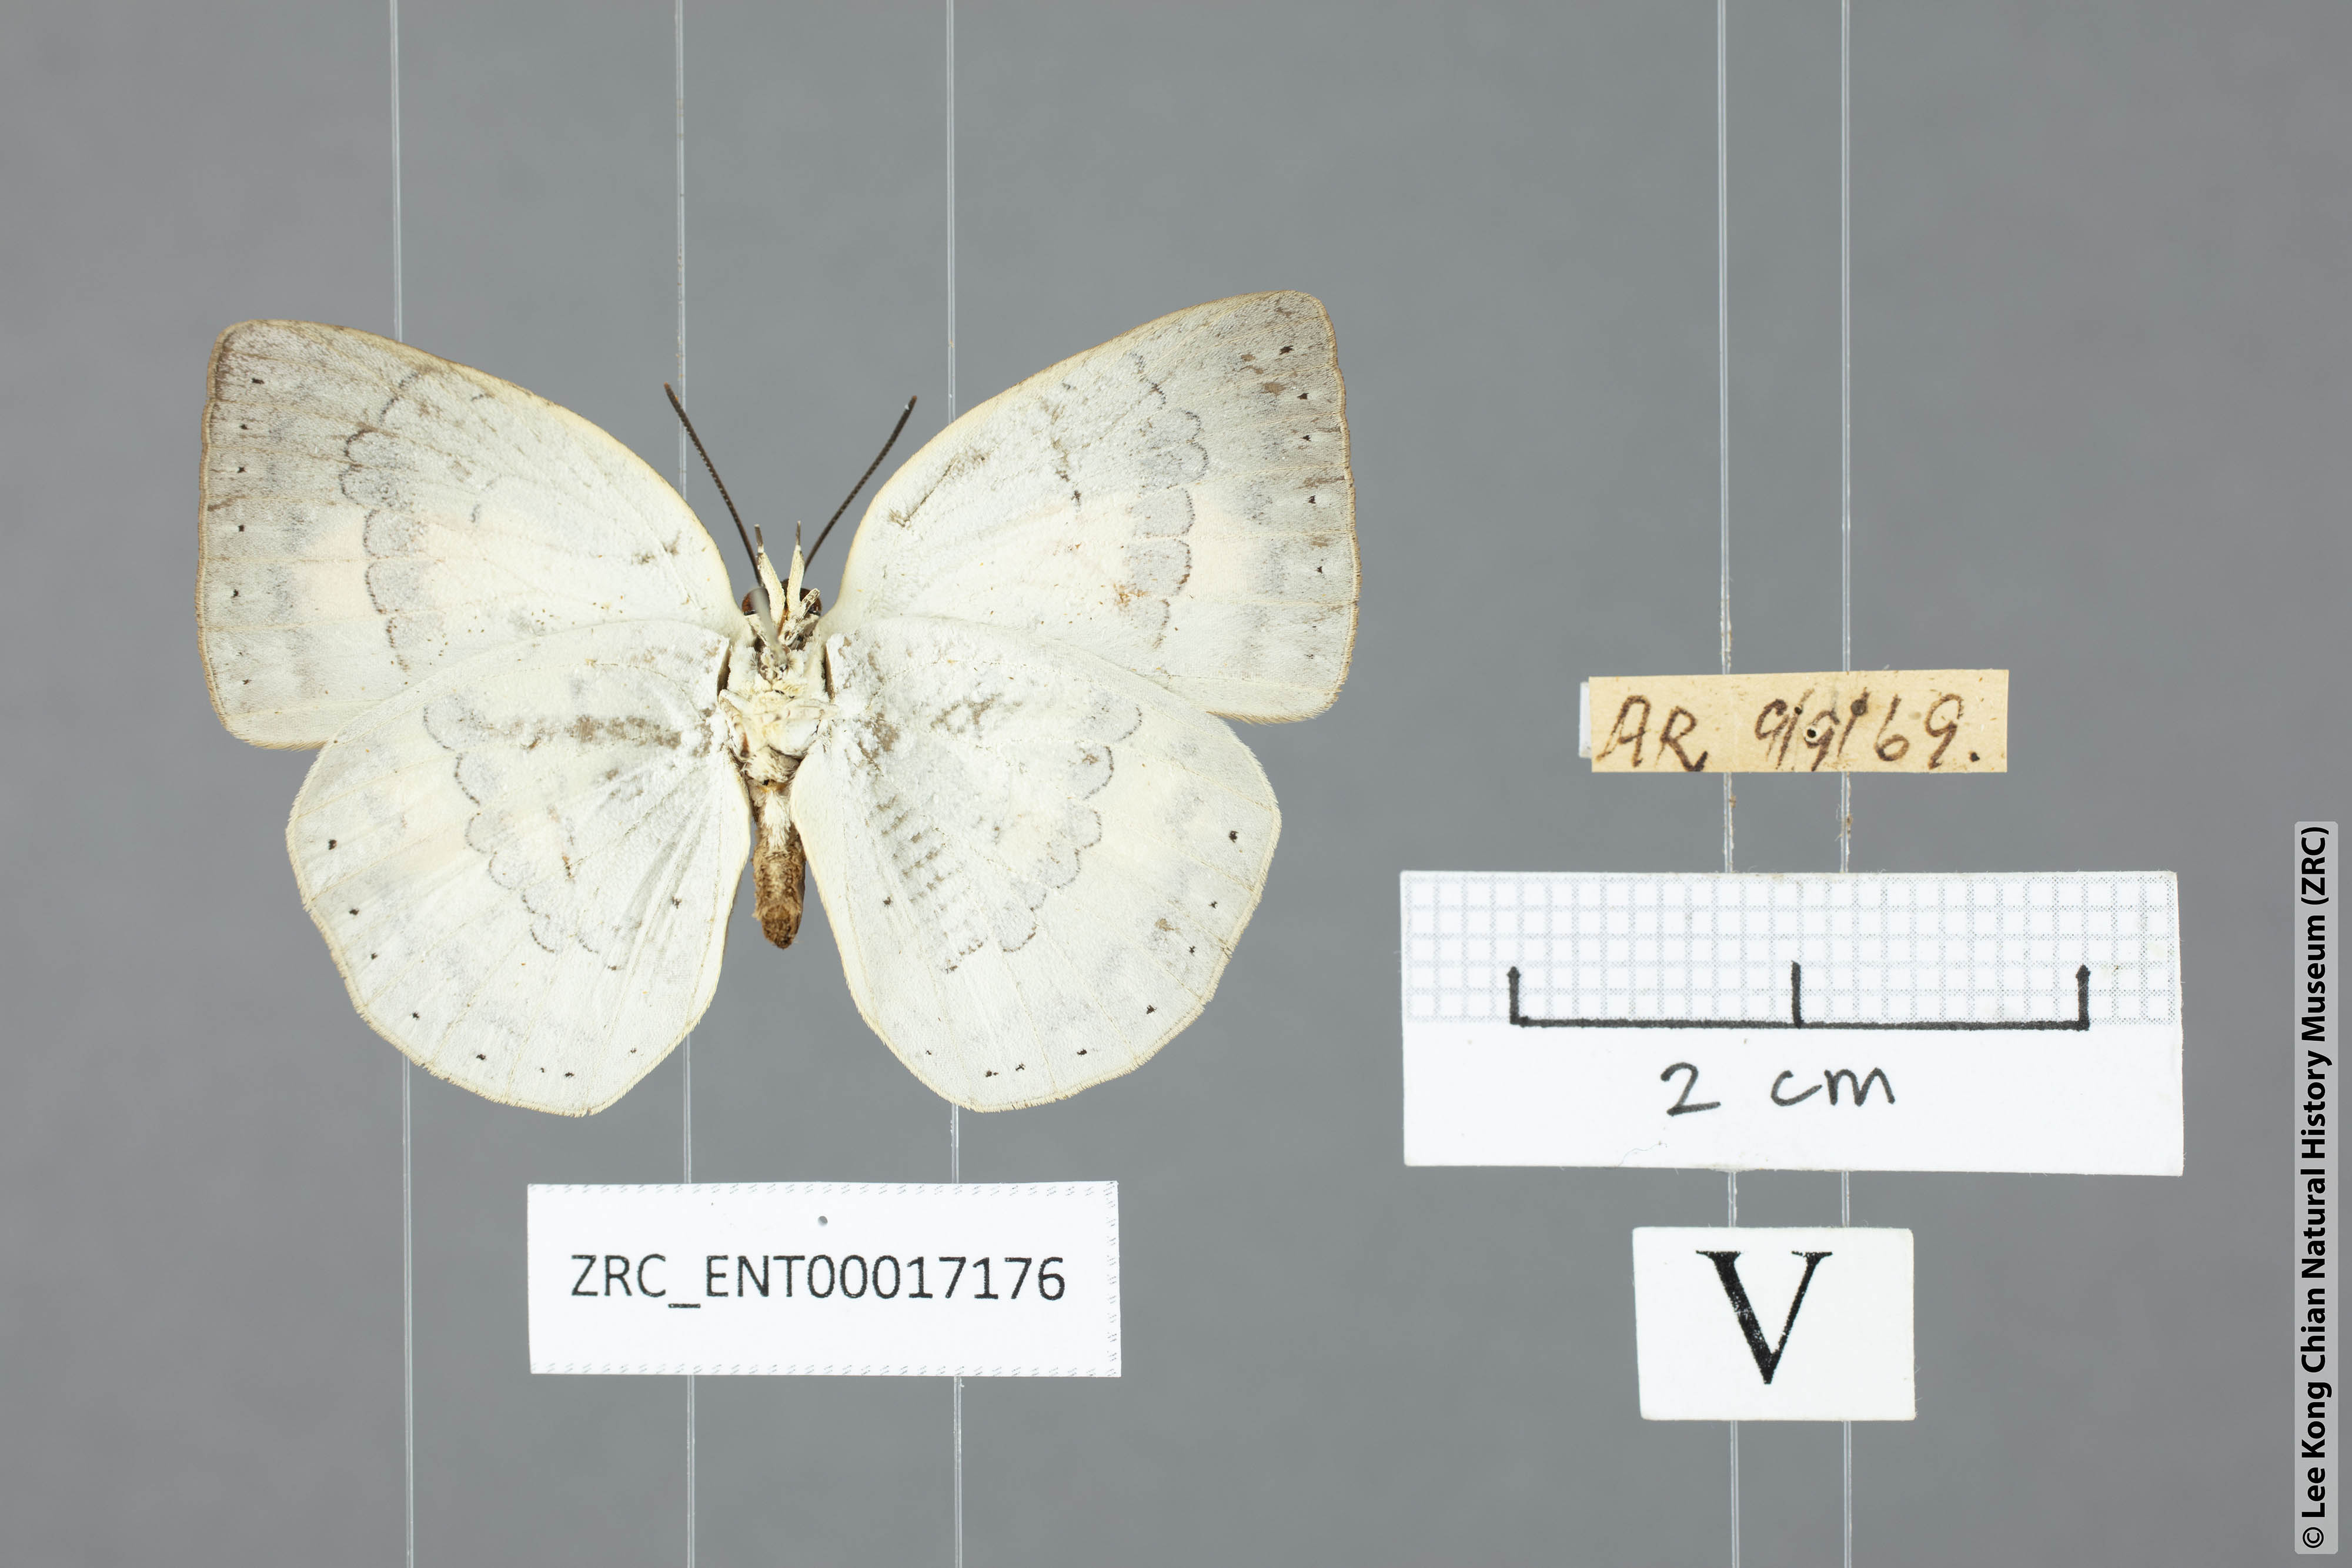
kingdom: Animalia
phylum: Arthropoda
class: Insecta
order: Lepidoptera
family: Lycaenidae
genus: Curetis
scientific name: Curetis tagalica
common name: Southern sunbeam
